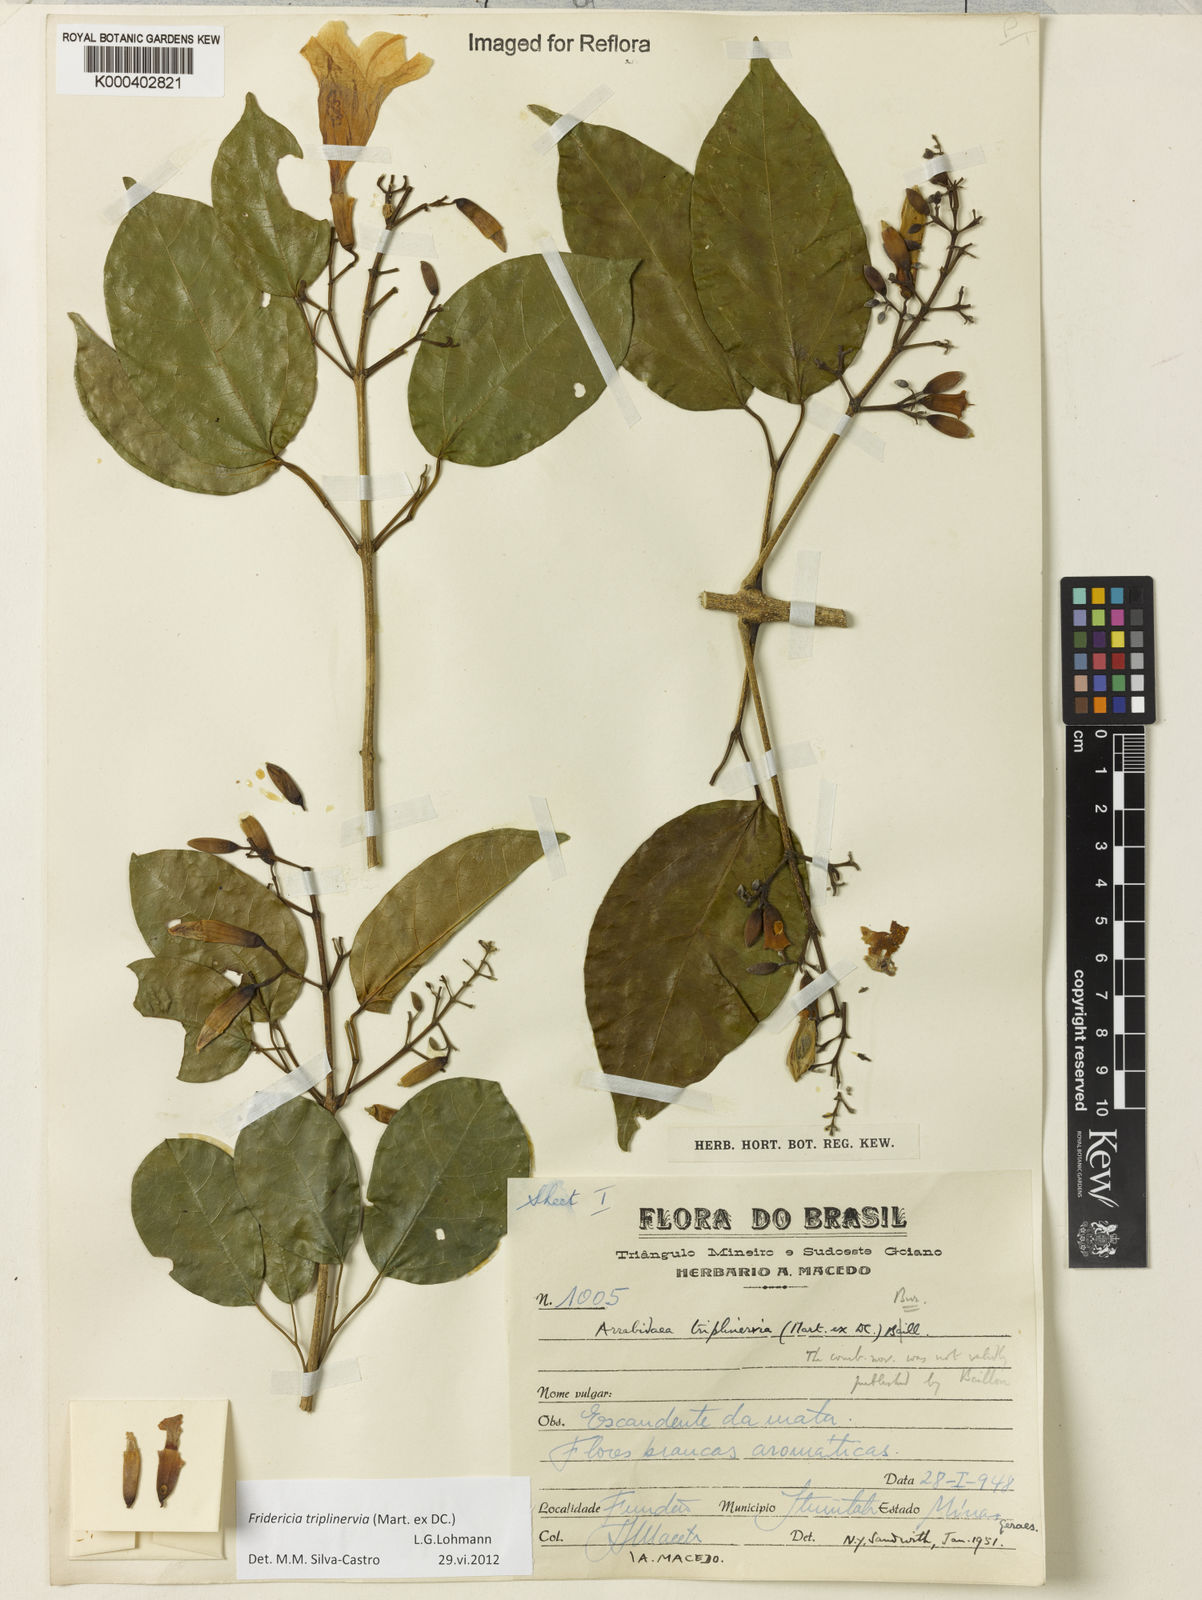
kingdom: Plantae
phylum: Tracheophyta
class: Magnoliopsida
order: Lamiales
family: Bignoniaceae
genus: Fridericia
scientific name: Fridericia triplinervia
